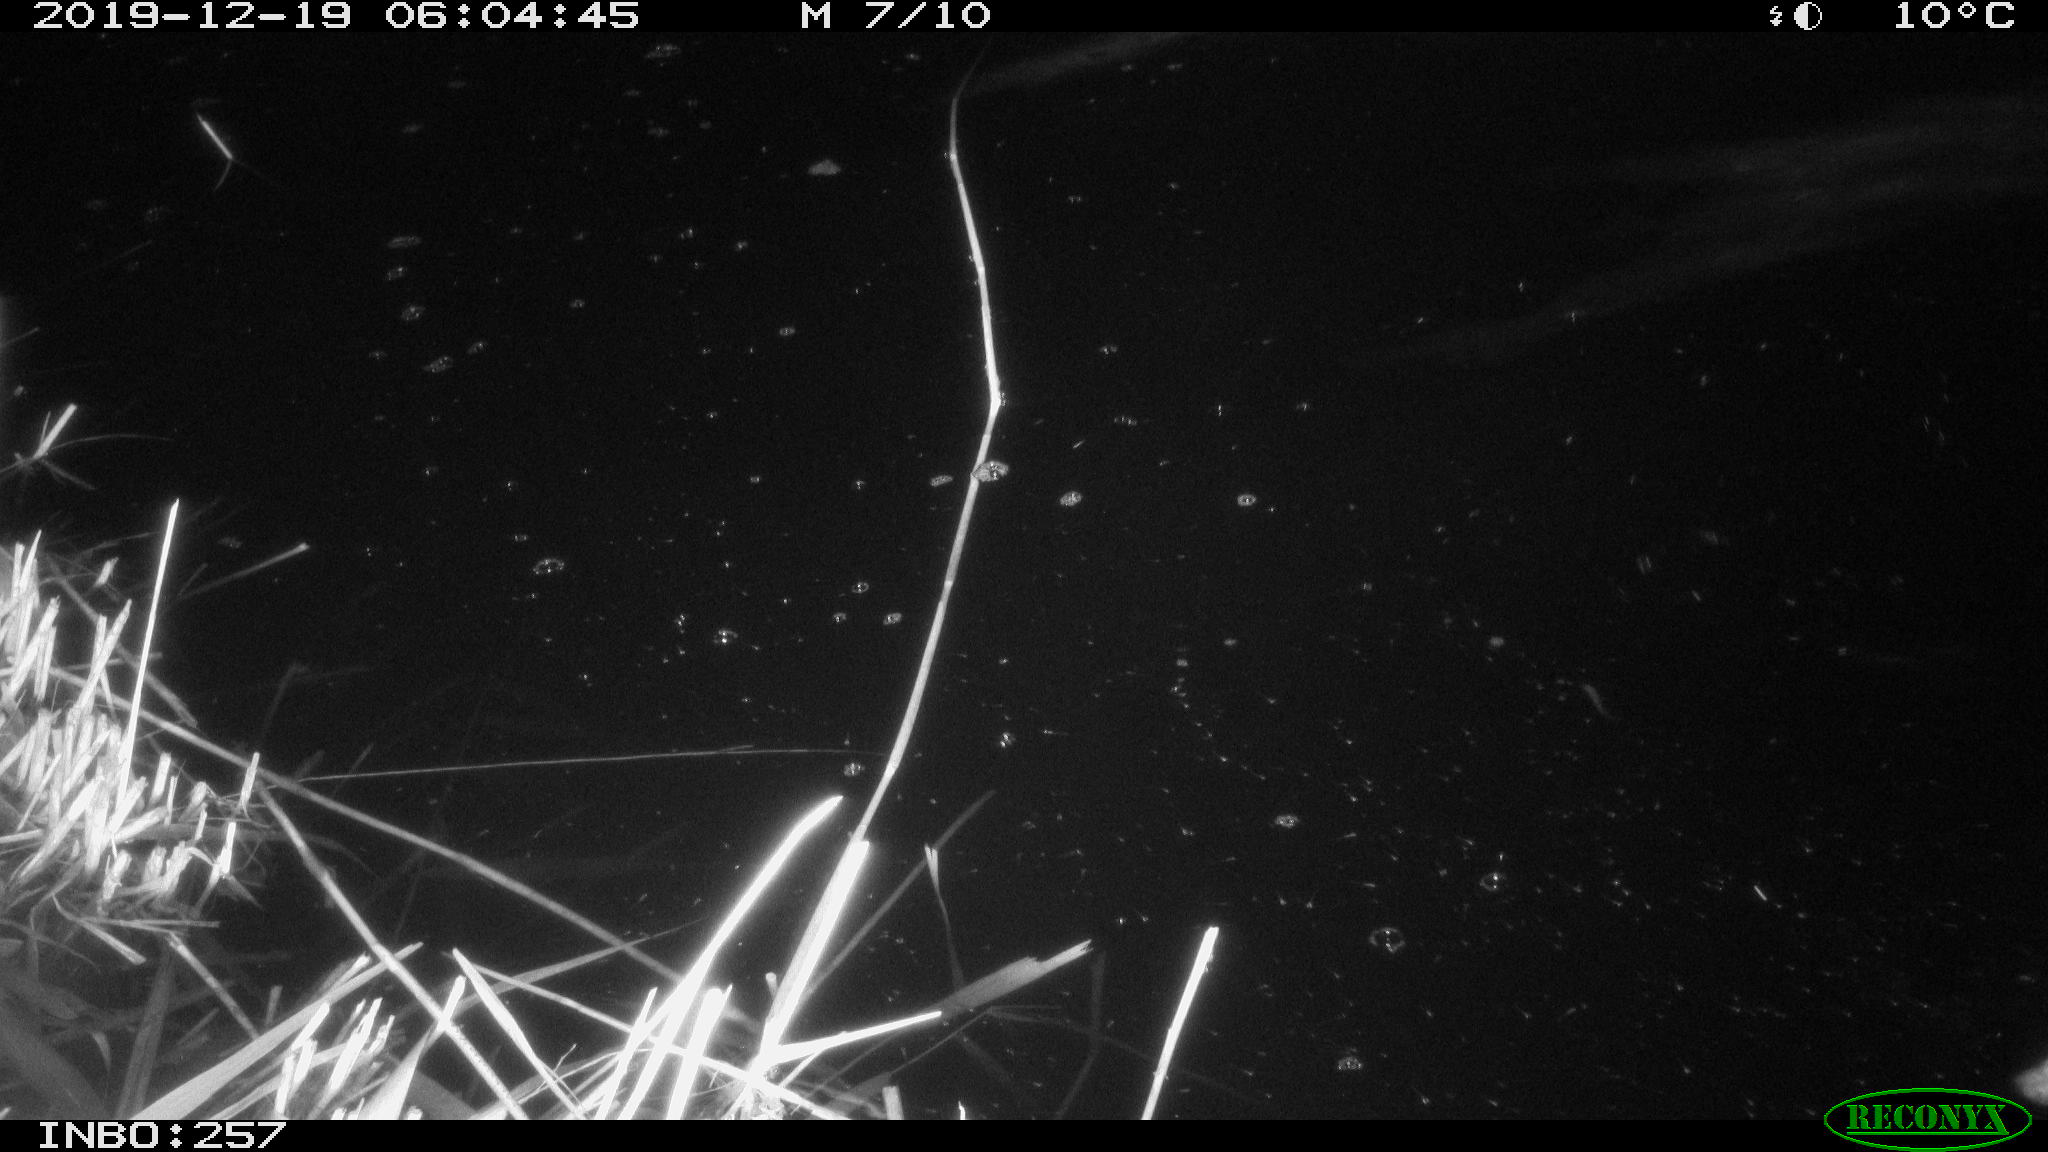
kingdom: Animalia
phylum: Chordata
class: Aves
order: Anseriformes
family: Anatidae
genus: Anas
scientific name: Anas platyrhynchos
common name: Mallard
